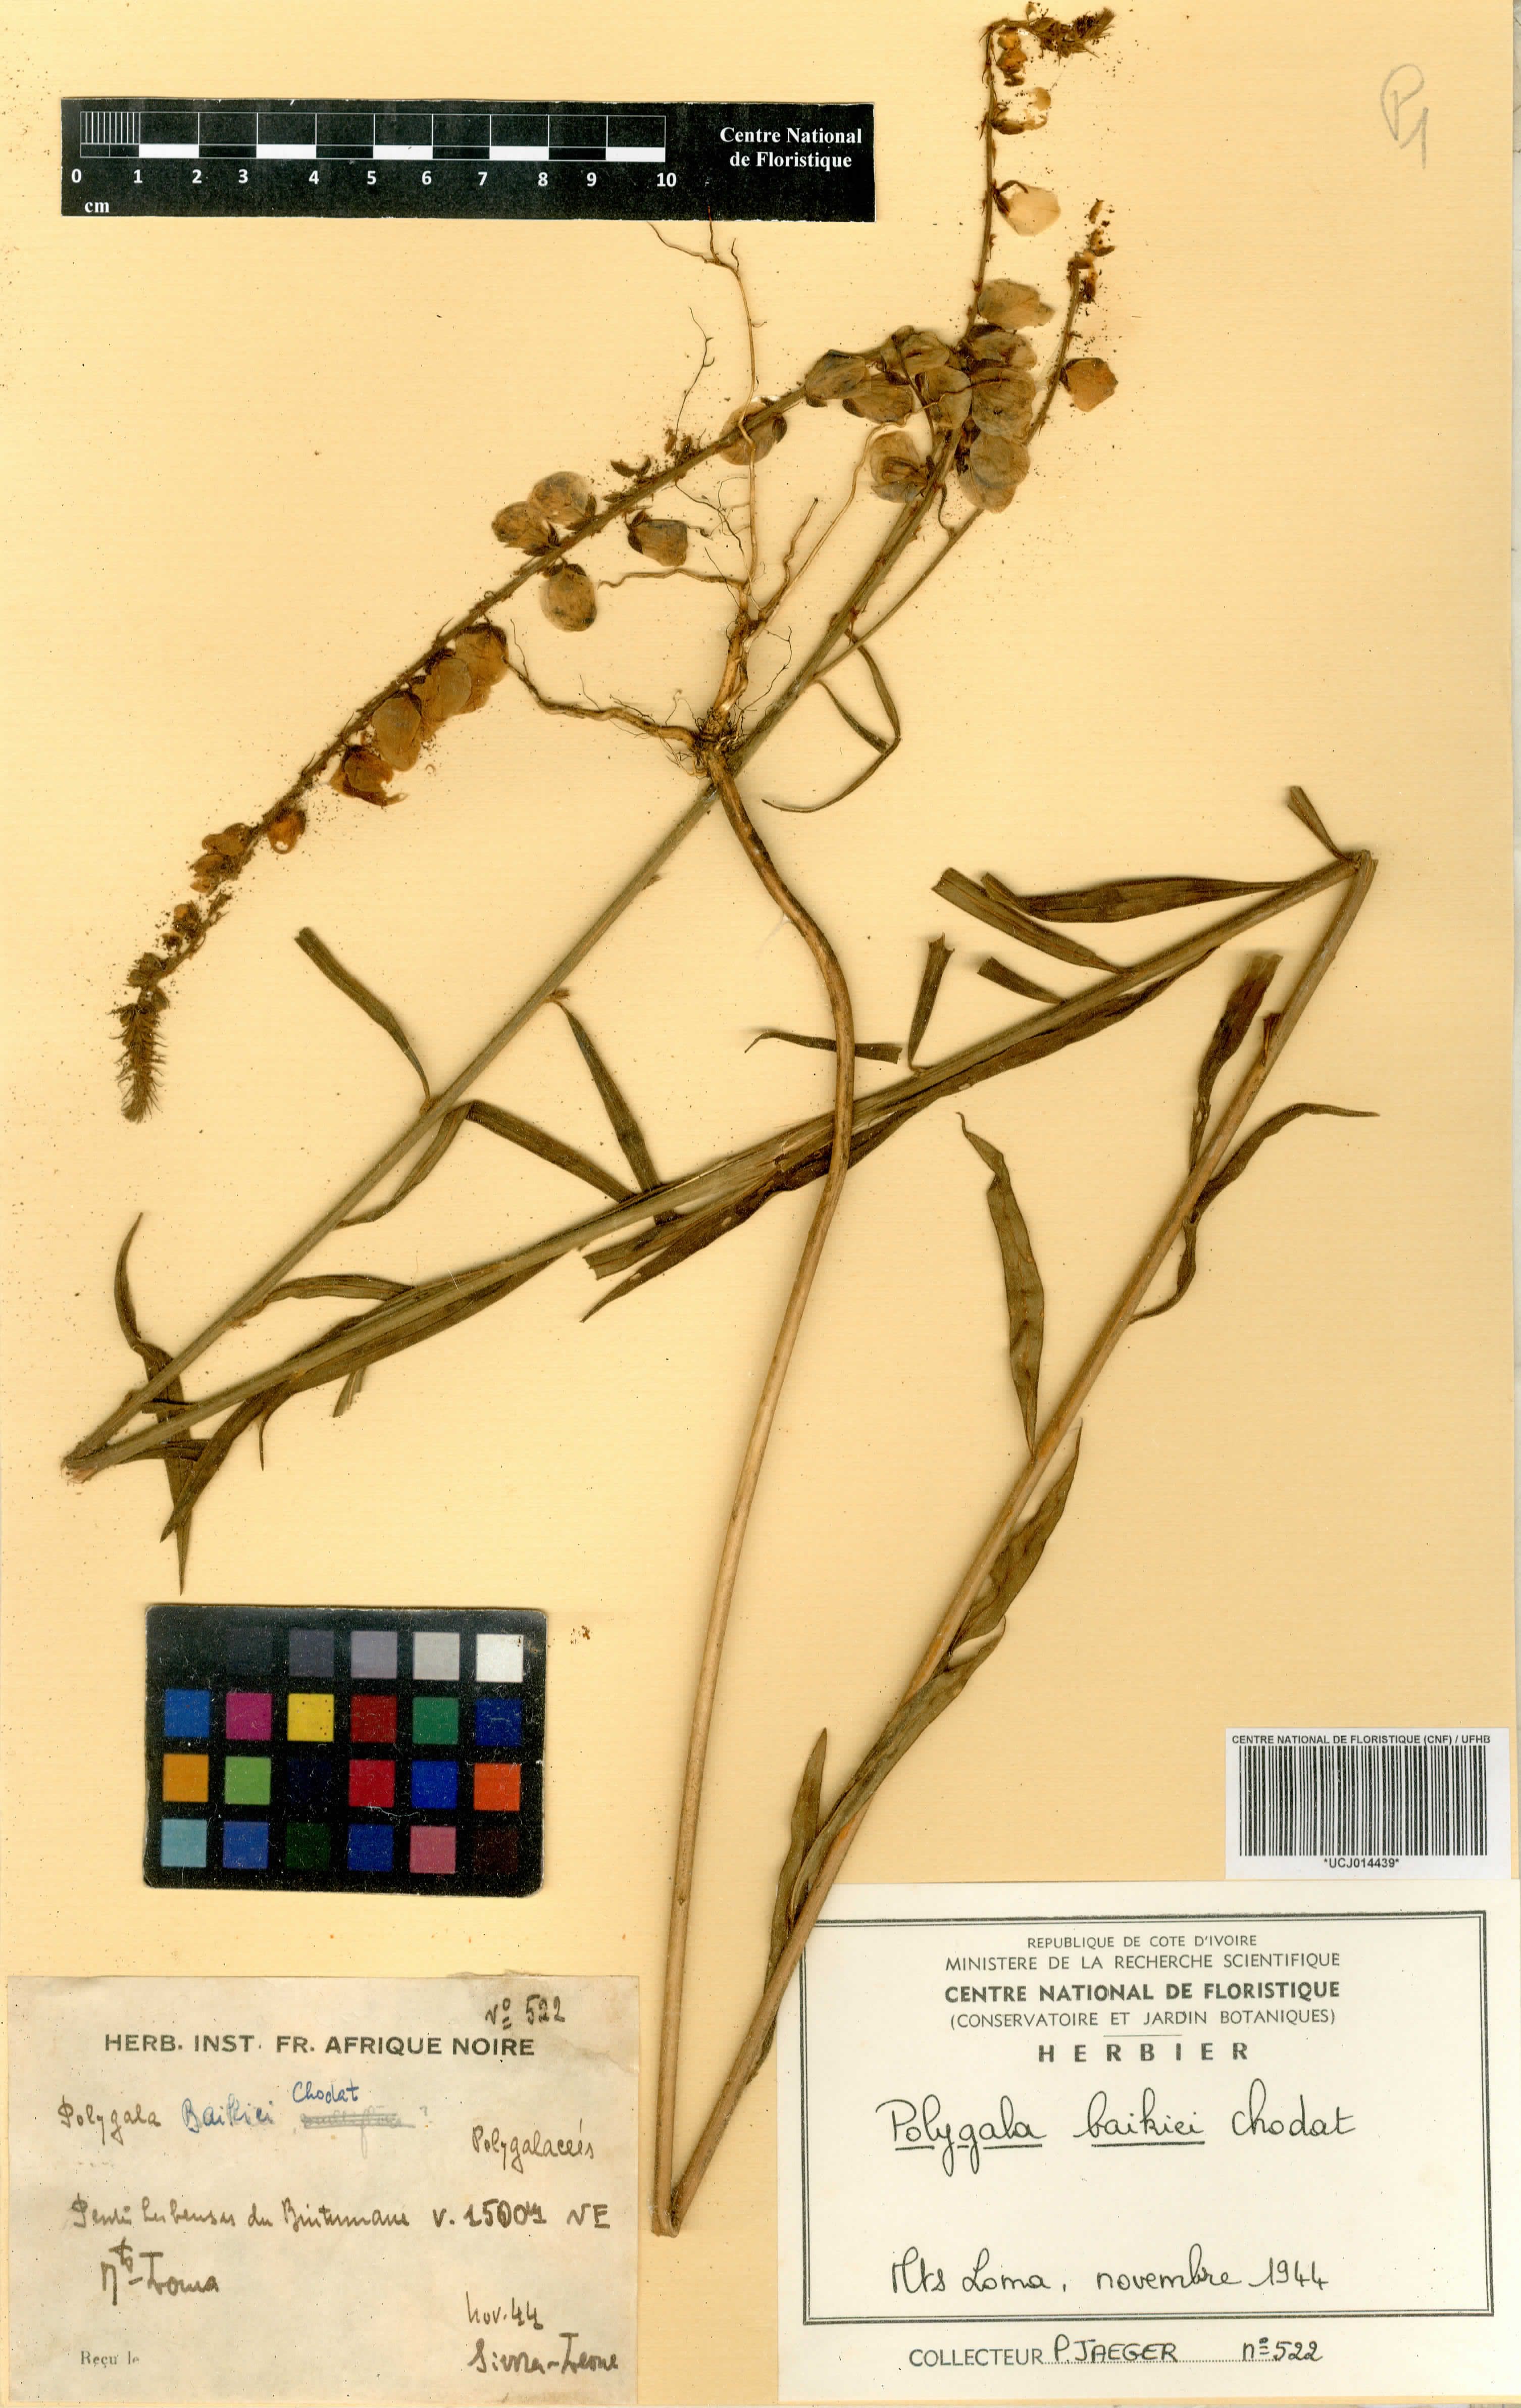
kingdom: Plantae
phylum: Tracheophyta
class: Magnoliopsida
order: Fabales
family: Polygalaceae
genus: Polygala
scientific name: Polygala baikiei
